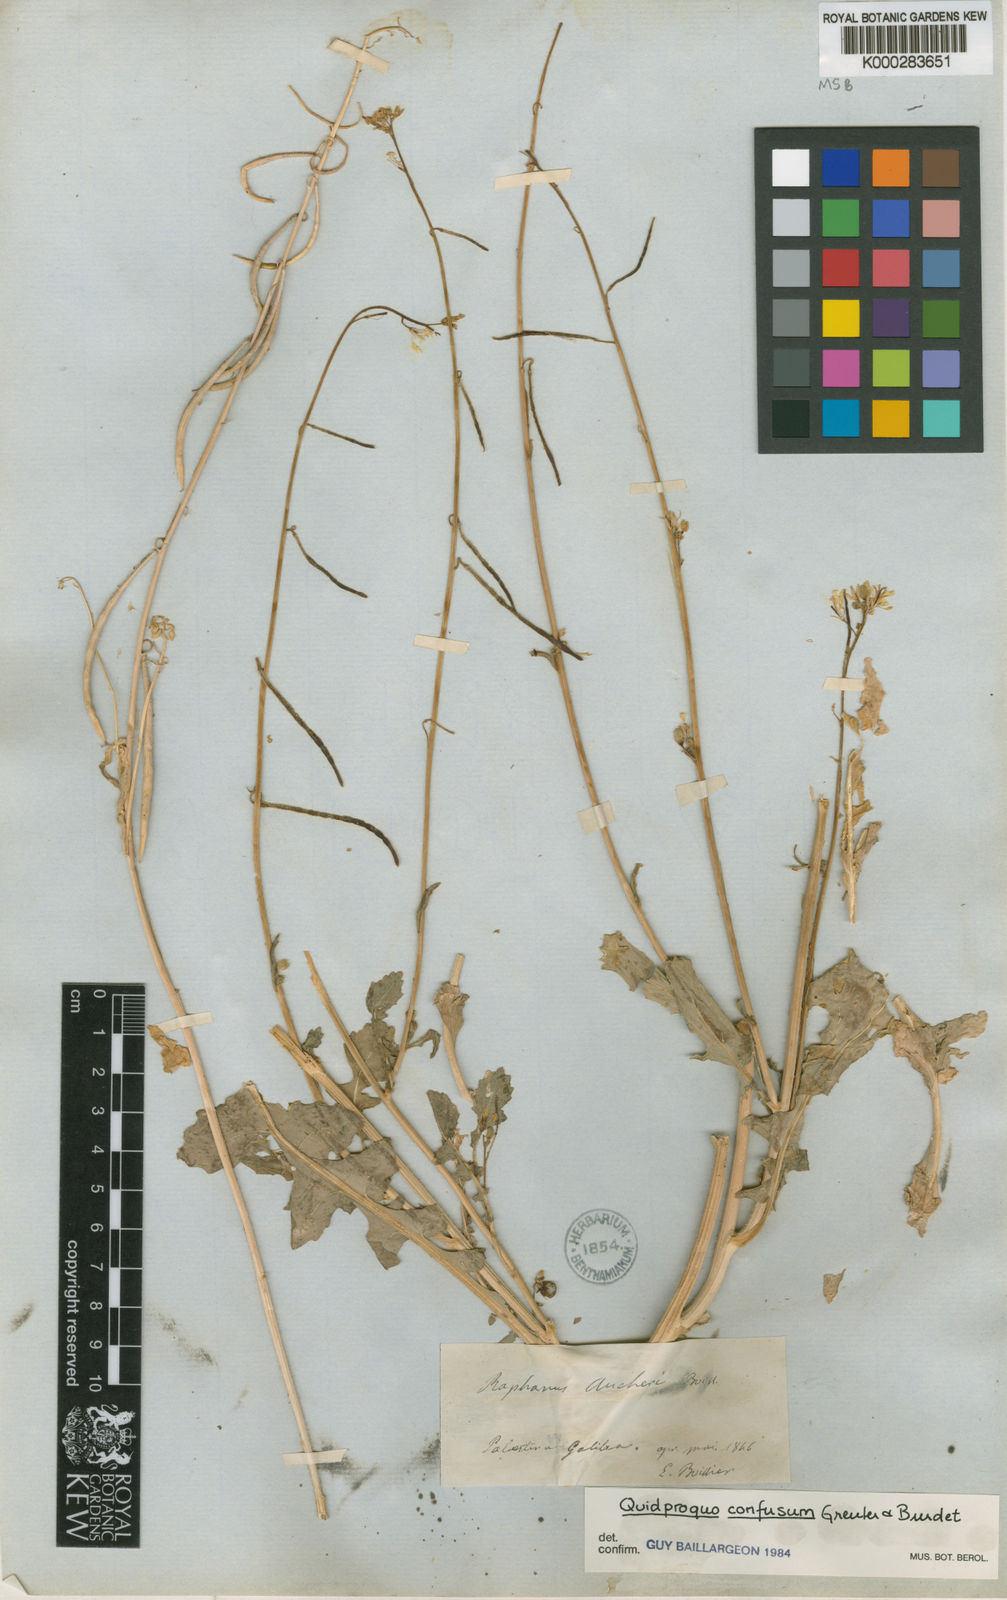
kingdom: Plantae
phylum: Tracheophyta
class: Magnoliopsida
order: Brassicales
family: Brassicaceae
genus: Raphanus
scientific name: Raphanus confusus
